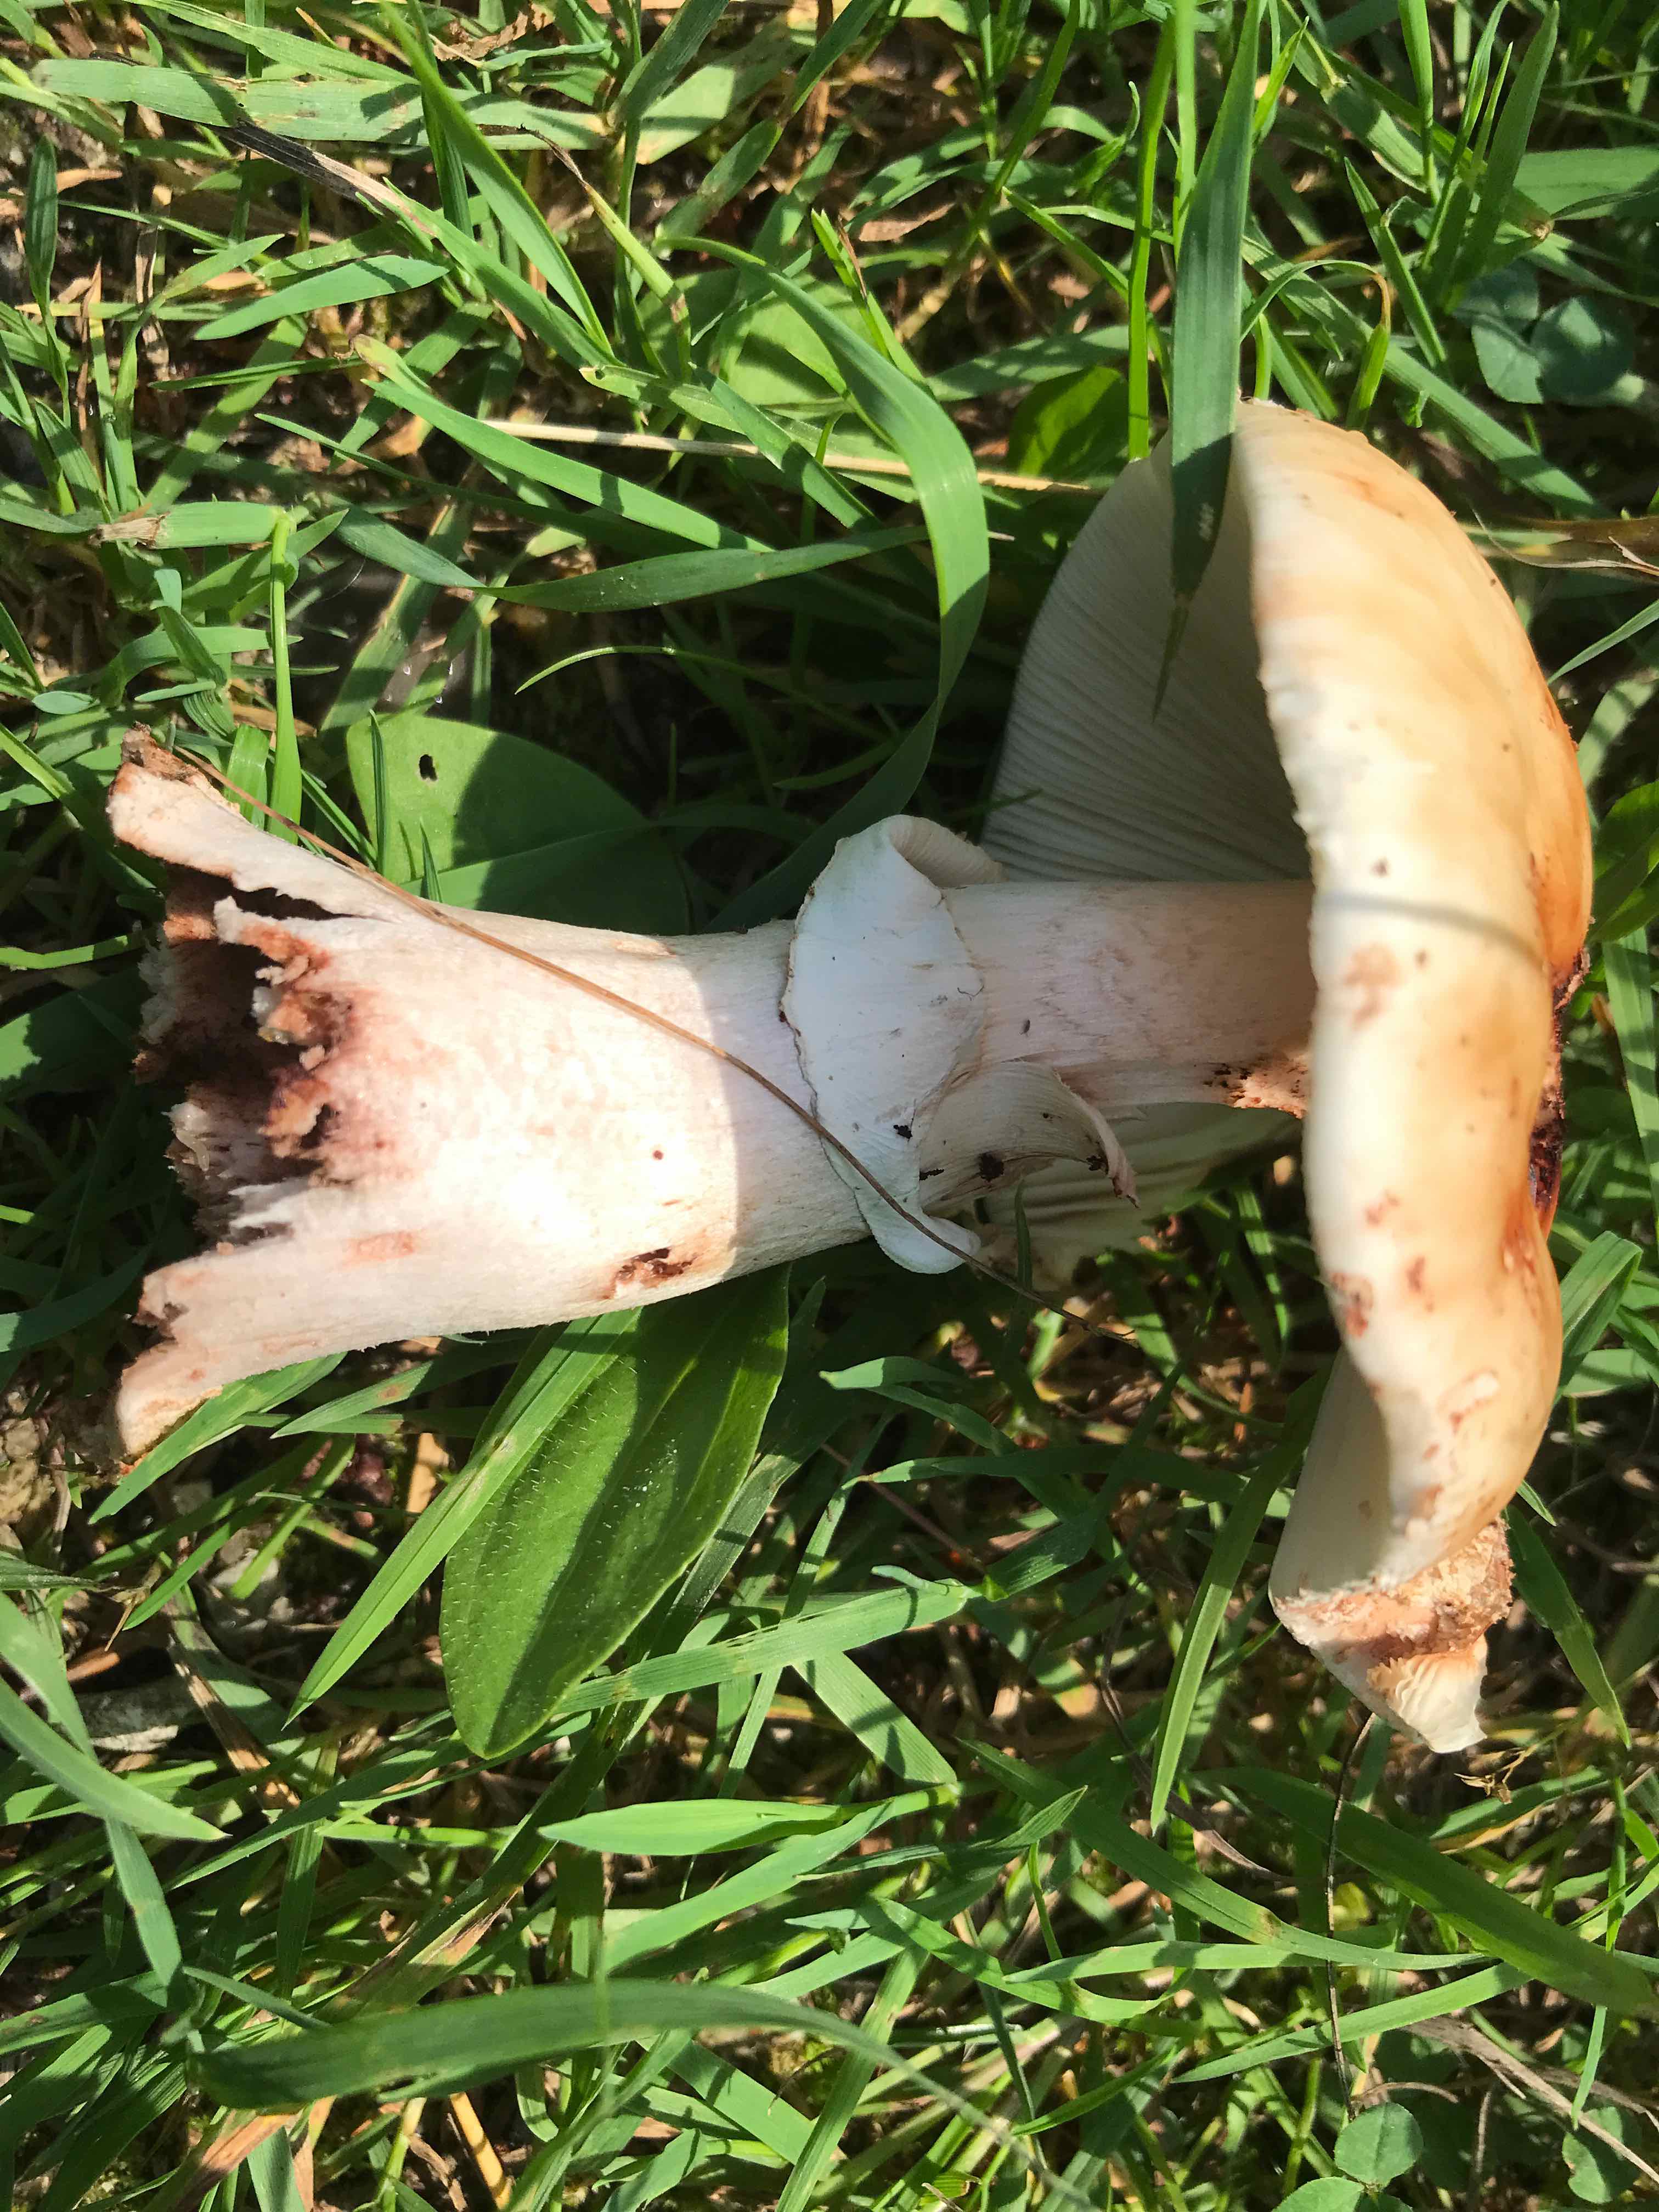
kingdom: Fungi
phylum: Basidiomycota
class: Agaricomycetes
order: Agaricales
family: Amanitaceae
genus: Amanita
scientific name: Amanita rubescens
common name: rødmende fluesvamp
